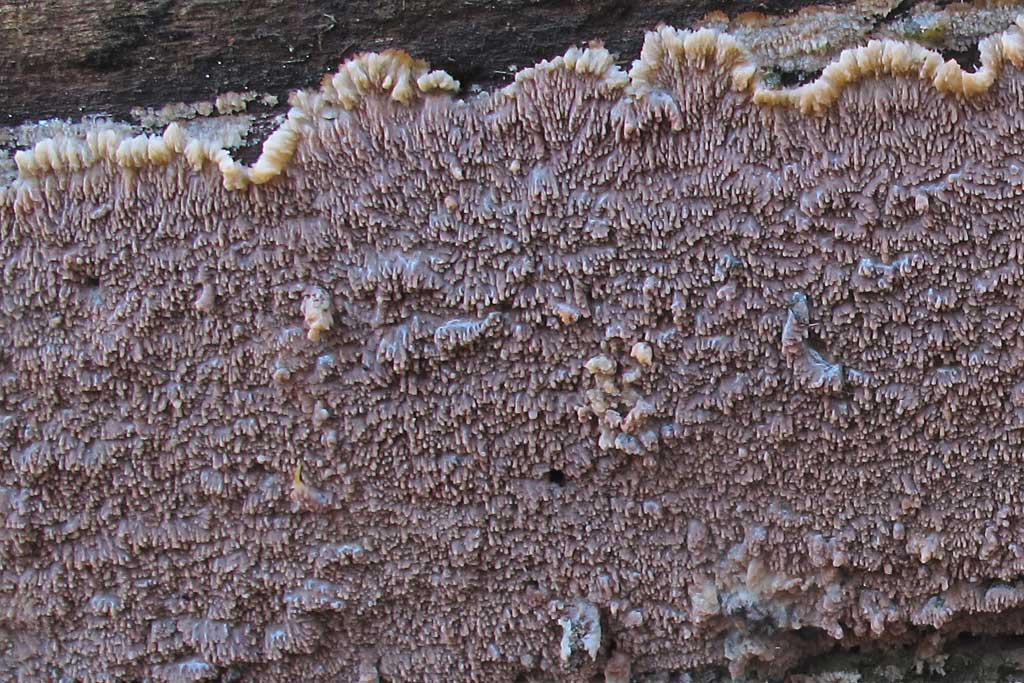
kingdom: Fungi
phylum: Basidiomycota
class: Agaricomycetes
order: Polyporales
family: Meruliaceae
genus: Phlebia
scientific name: Phlebia rufa
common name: ege-åresvamp
